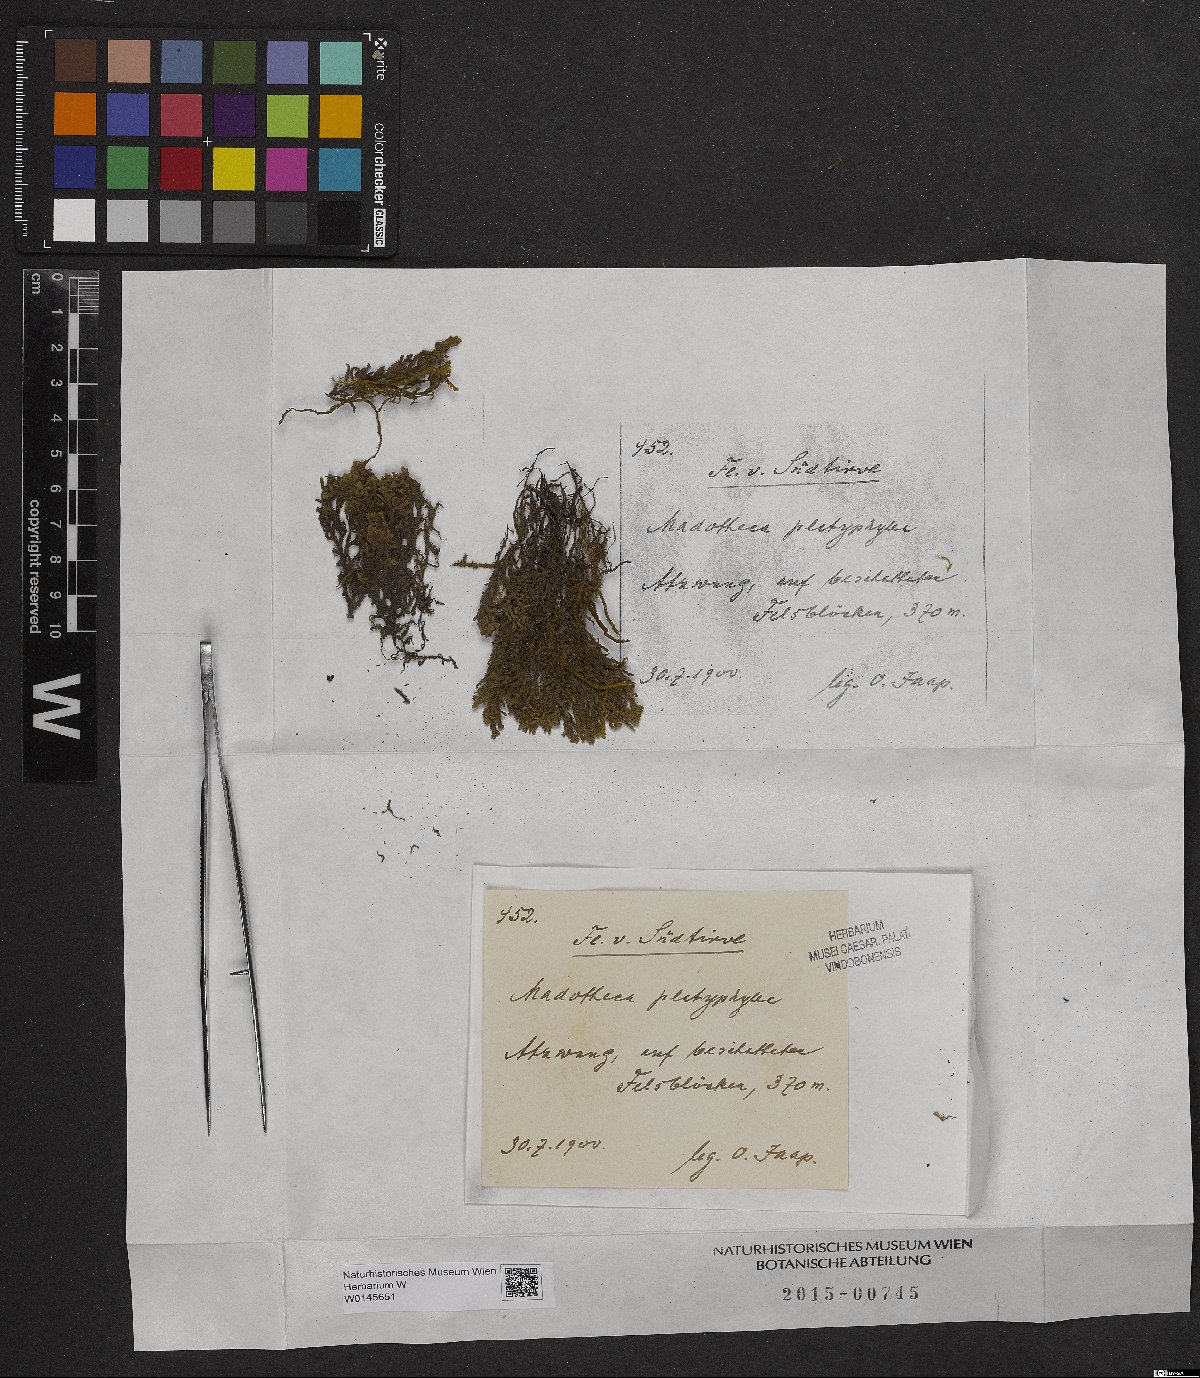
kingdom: Plantae
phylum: Marchantiophyta
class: Jungermanniopsida
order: Porellales
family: Porellaceae
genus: Porella
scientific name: Porella platyphylla
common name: Wall scalewort
